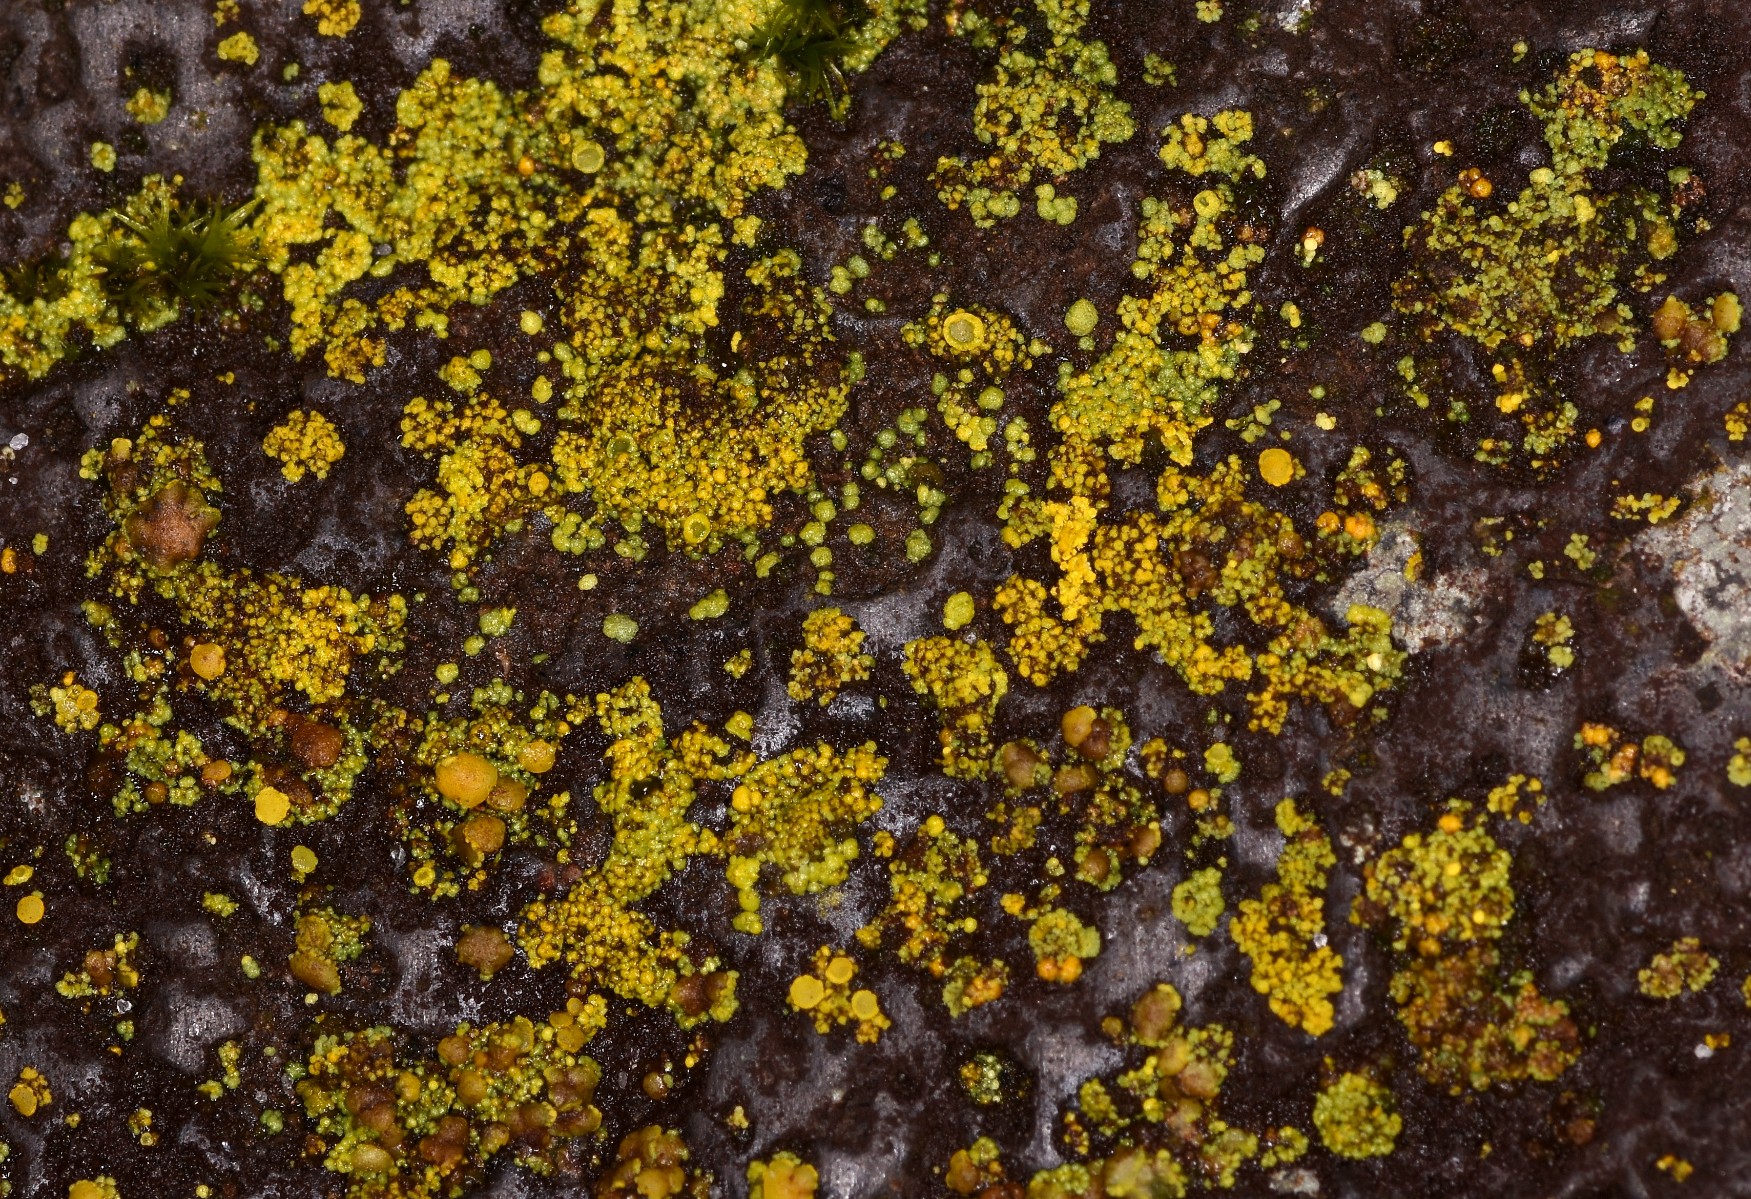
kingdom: Fungi
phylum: Ascomycota
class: Candelariomycetes
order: Candelariales
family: Candelariaceae
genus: Candelariella
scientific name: Candelariella vitellina
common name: almindelig æggeblommelav
